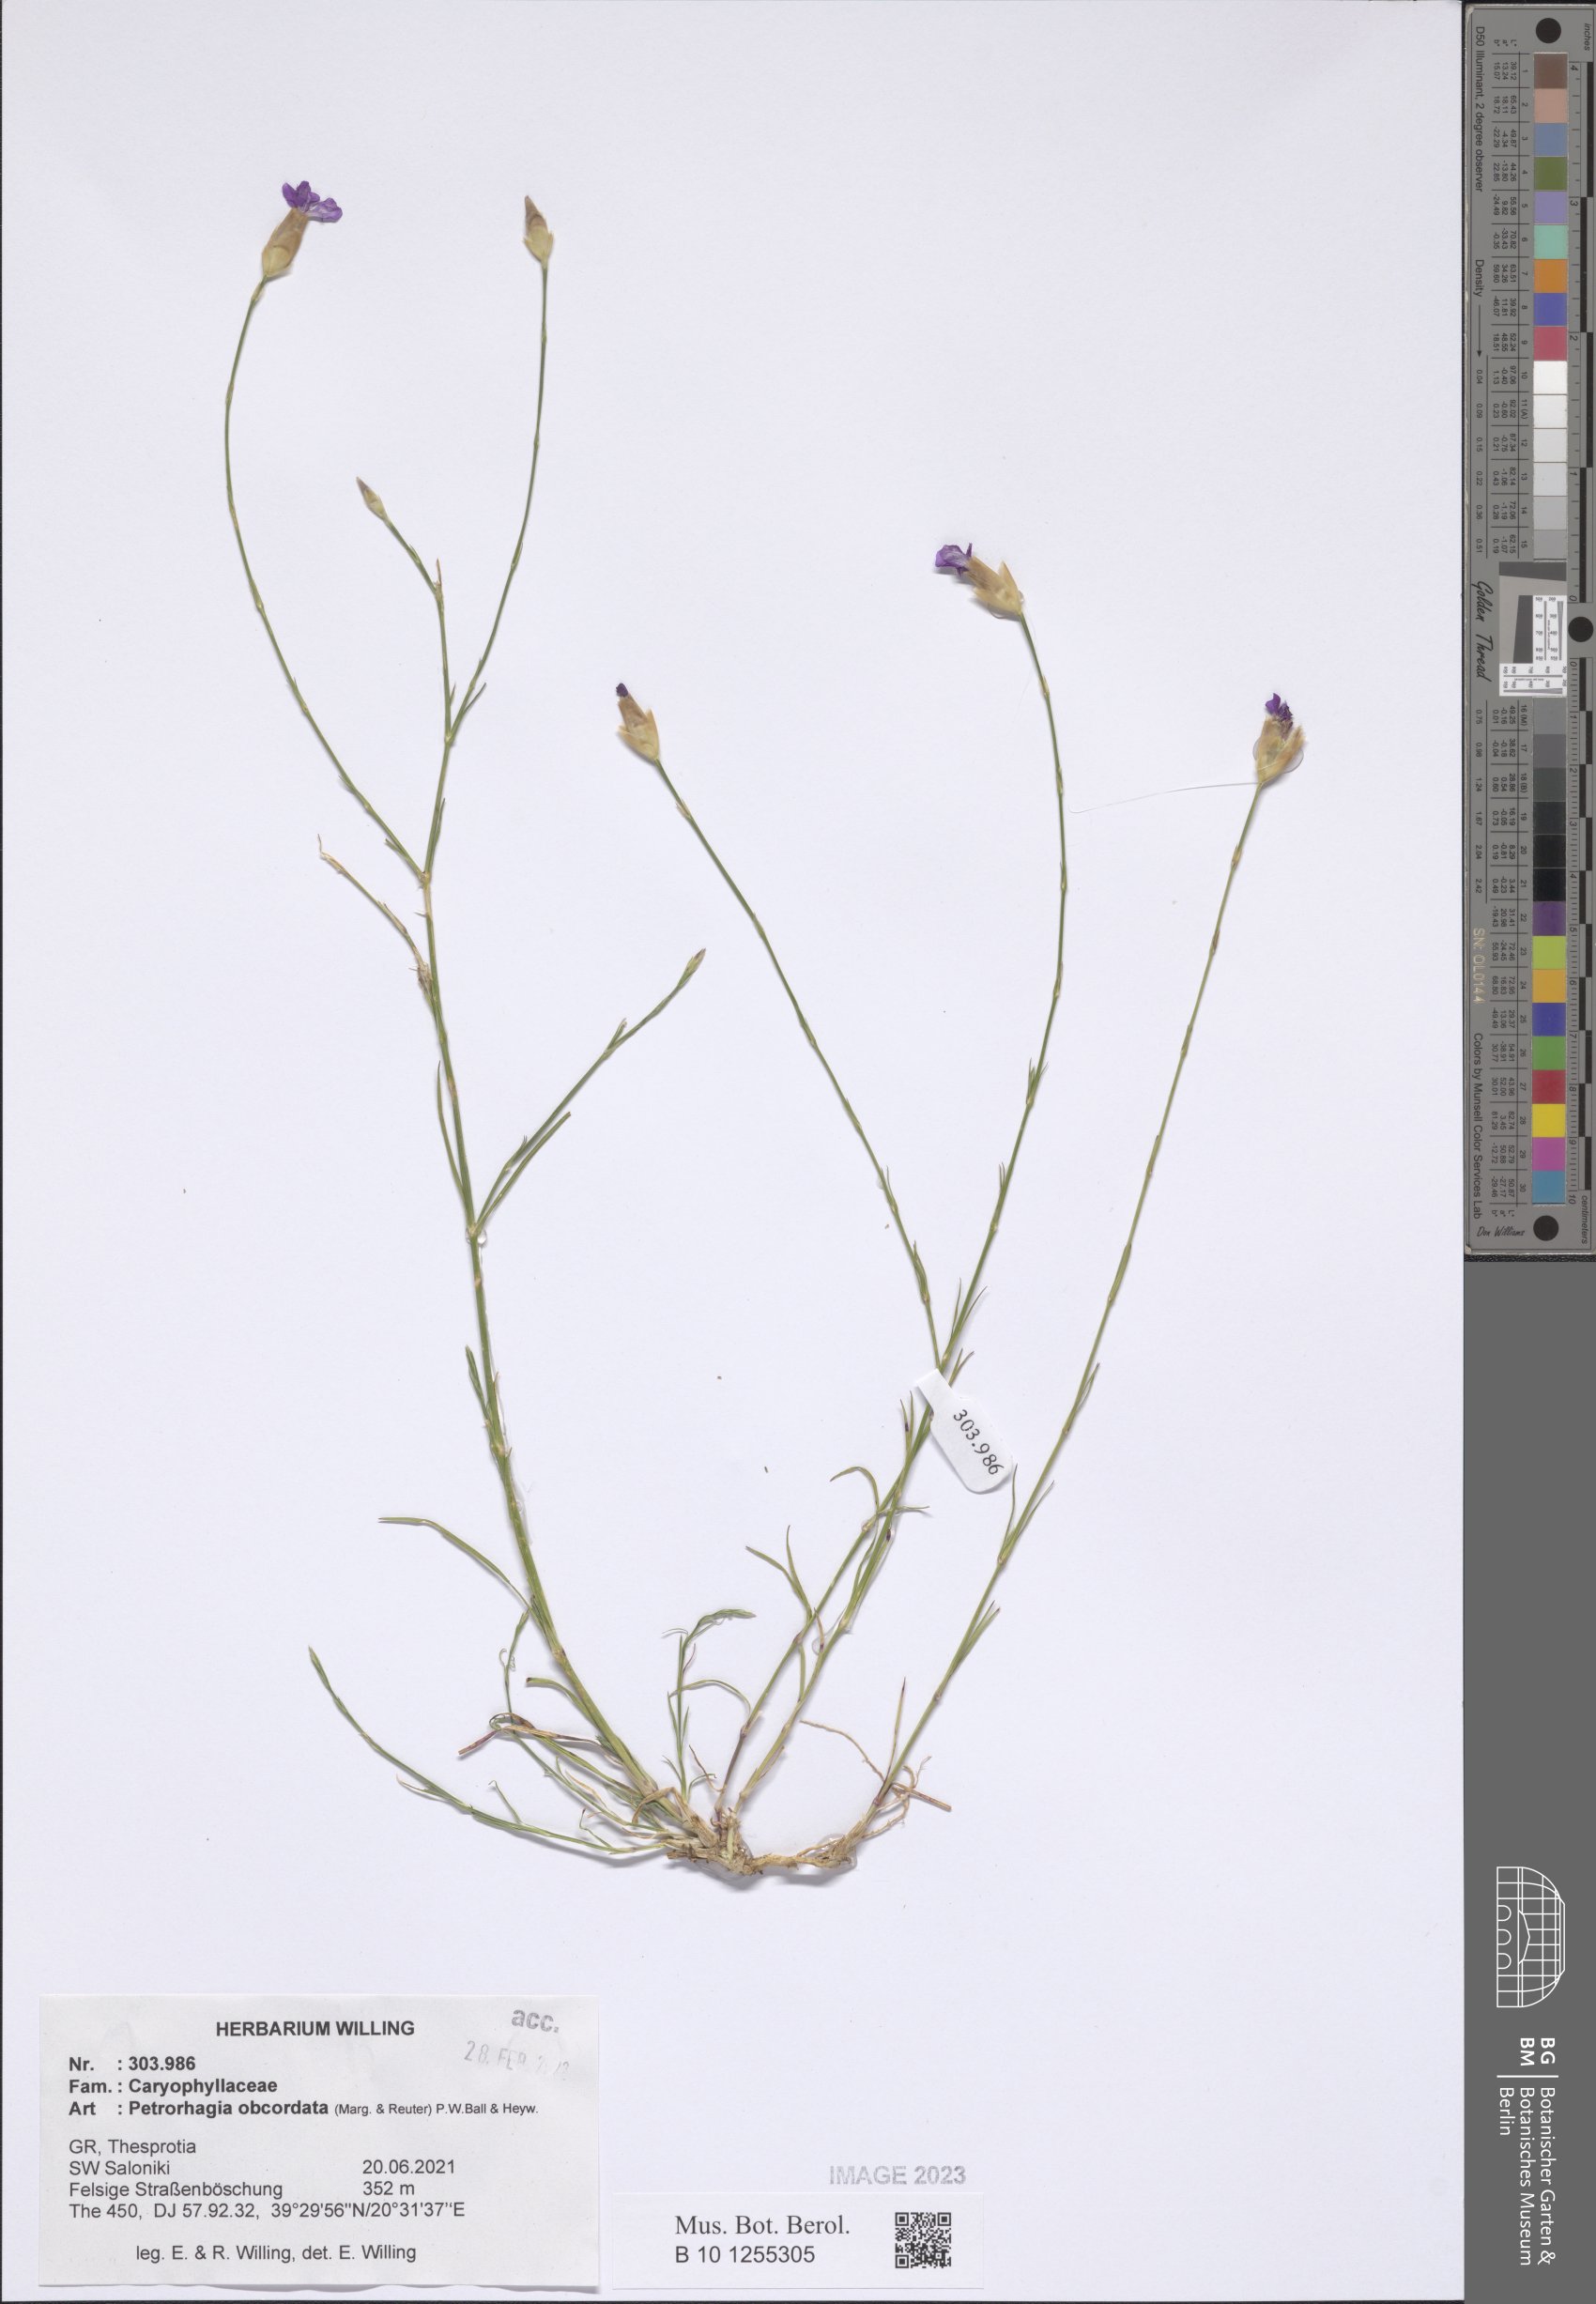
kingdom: Plantae
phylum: Tracheophyta
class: Magnoliopsida
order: Caryophyllales
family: Caryophyllaceae
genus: Petrorhagia
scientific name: Petrorhagia obcordata
